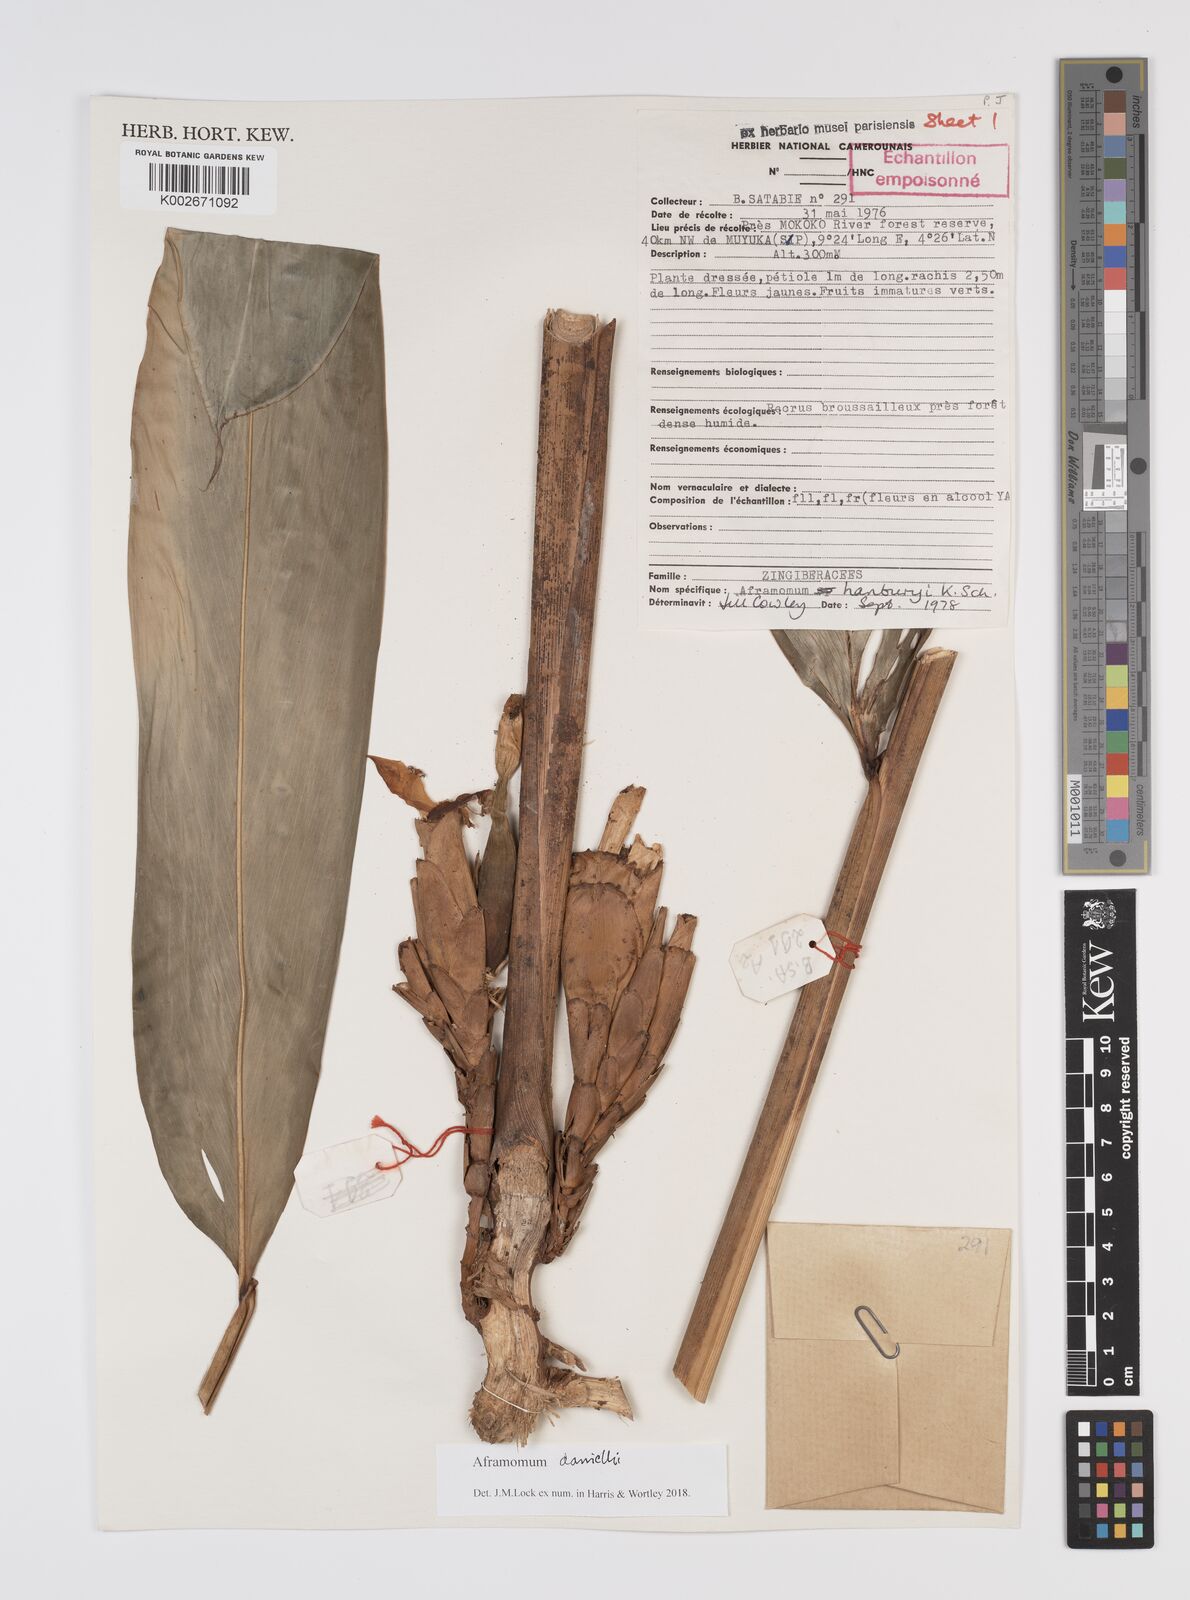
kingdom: Plantae
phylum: Tracheophyta
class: Liliopsida
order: Zingiberales
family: Zingiberaceae
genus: Aframomum
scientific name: Aframomum daniellii
